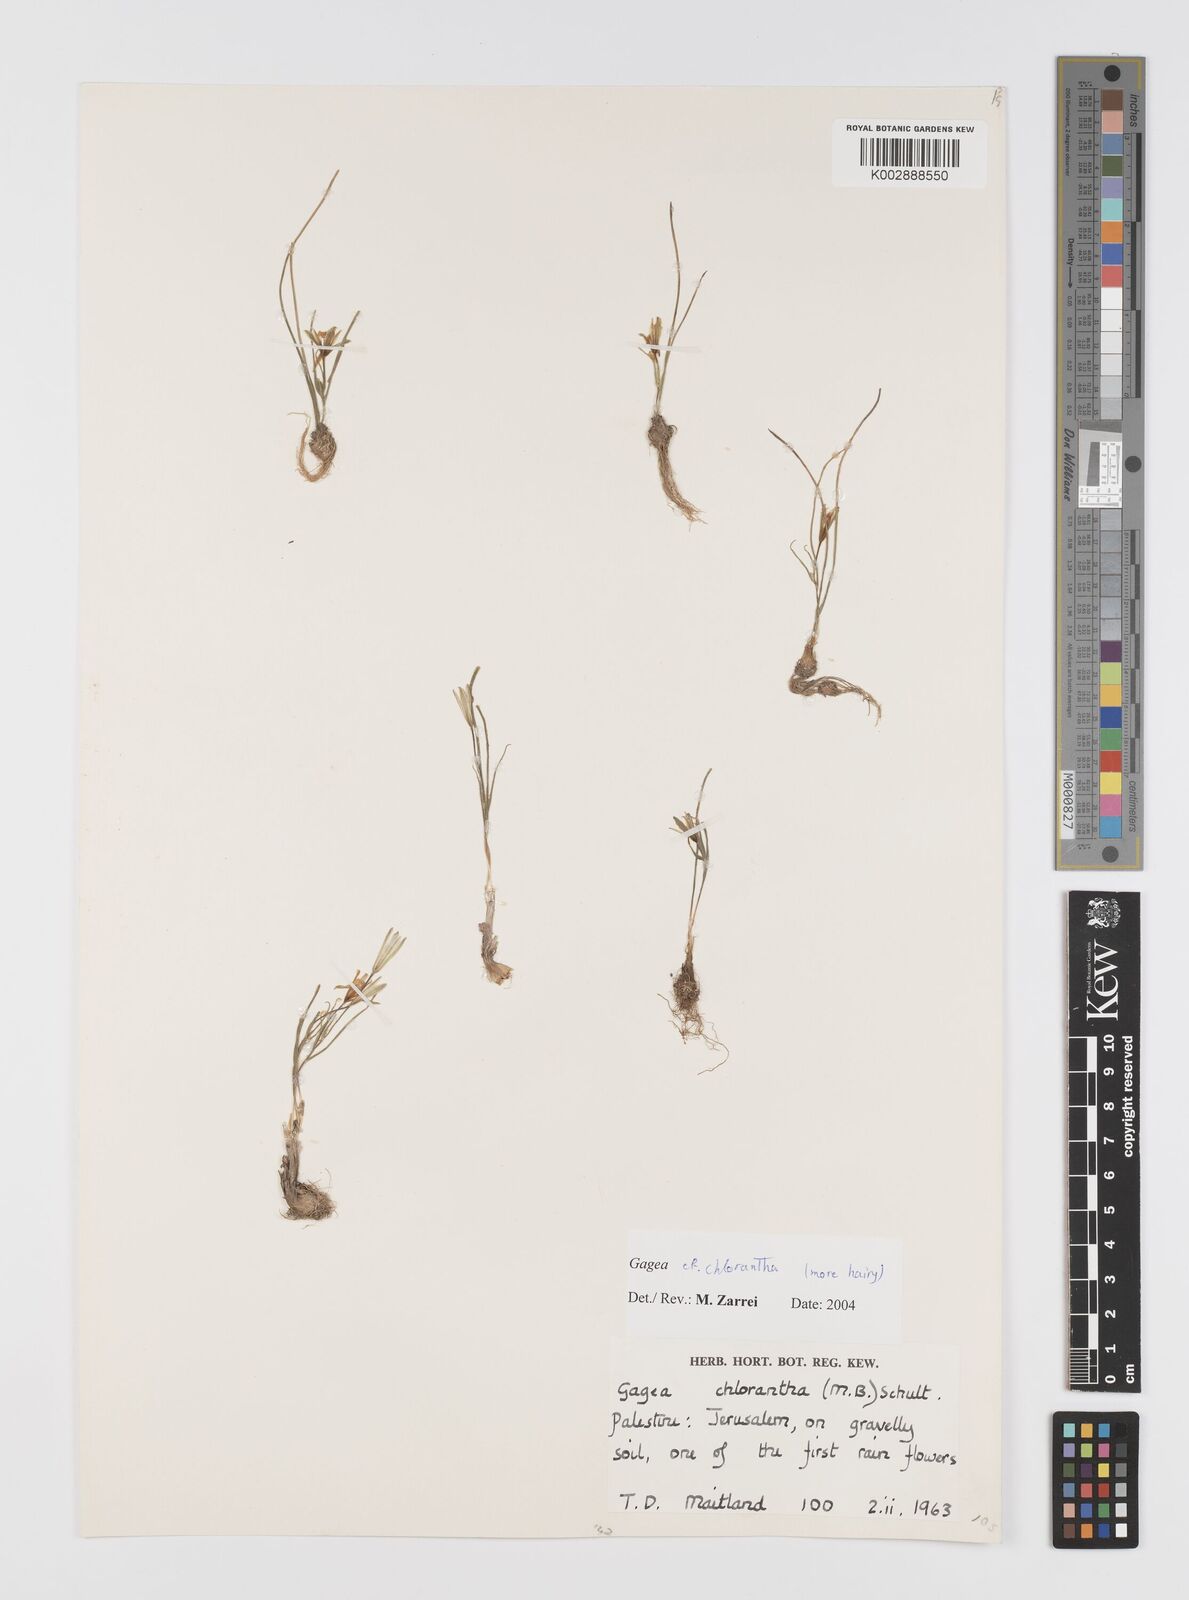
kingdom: Plantae
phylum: Tracheophyta
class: Liliopsida
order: Liliales
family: Liliaceae
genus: Gagea
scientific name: Gagea chlorantha
